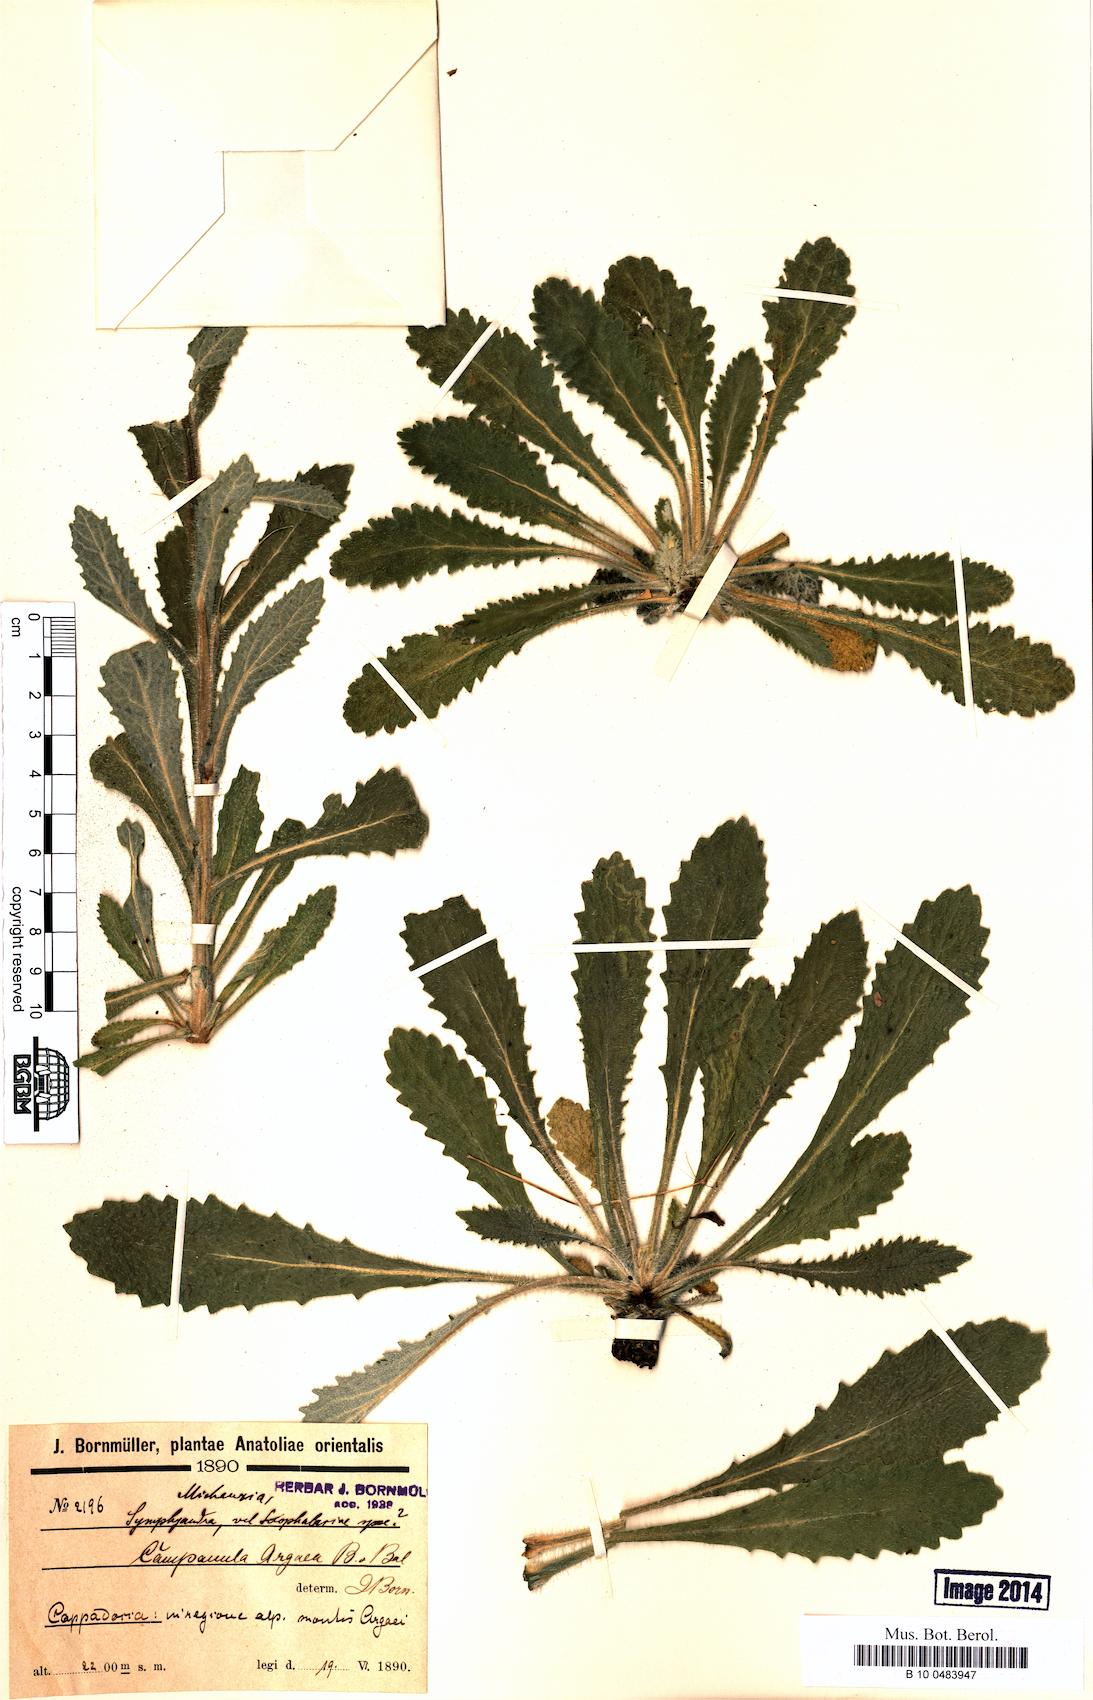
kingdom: Plantae
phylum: Tracheophyta
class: Magnoliopsida
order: Asterales
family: Campanulaceae
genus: Campanula
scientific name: Campanula ajugifolia
